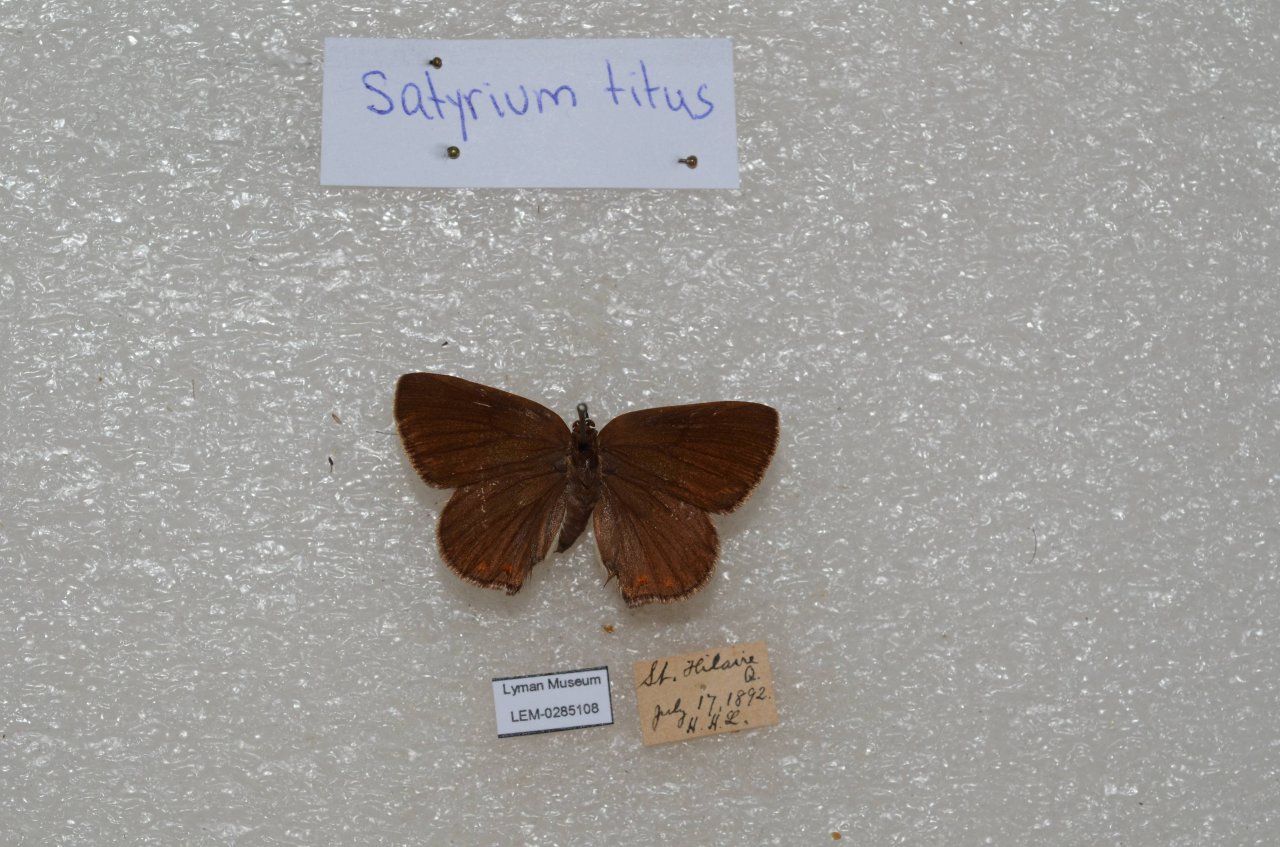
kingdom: Animalia
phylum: Arthropoda
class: Insecta
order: Lepidoptera
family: Lycaenidae
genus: Harkenclenus
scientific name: Harkenclenus titus
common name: Coral Hairstreak
